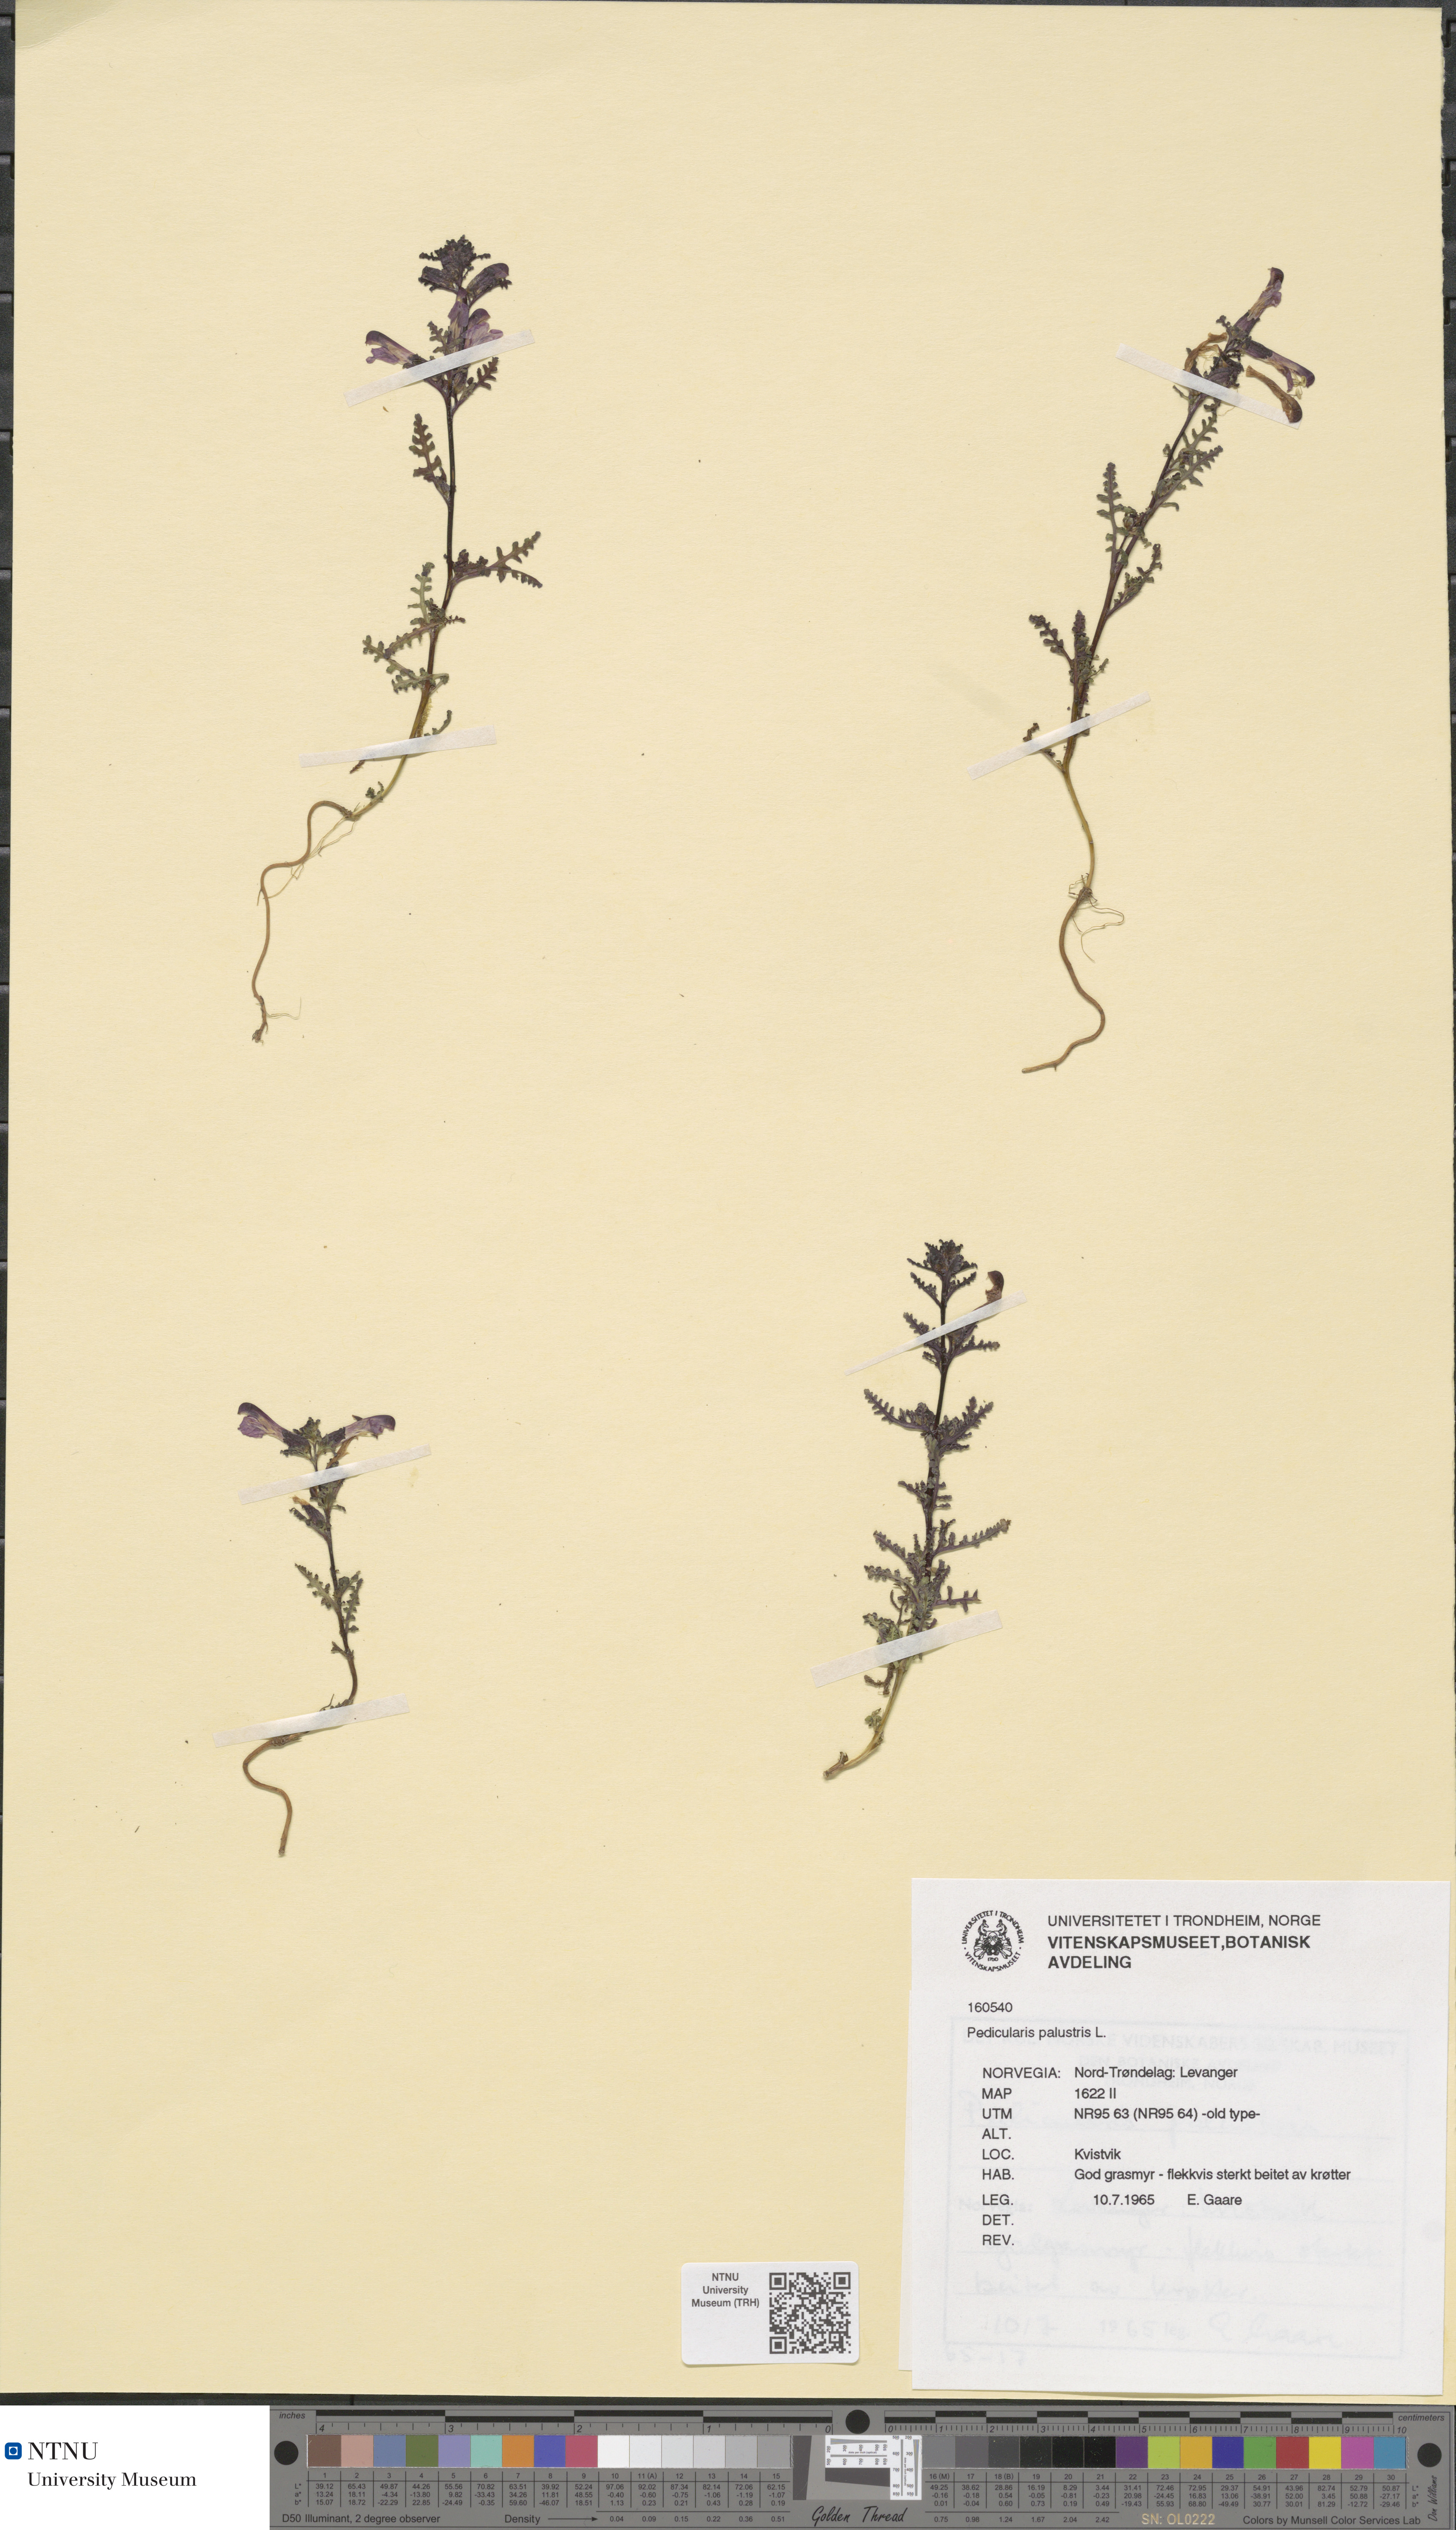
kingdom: Plantae
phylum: Tracheophyta
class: Magnoliopsida
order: Lamiales
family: Orobanchaceae
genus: Pedicularis
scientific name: Pedicularis palustris
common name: Marsh lousewort
